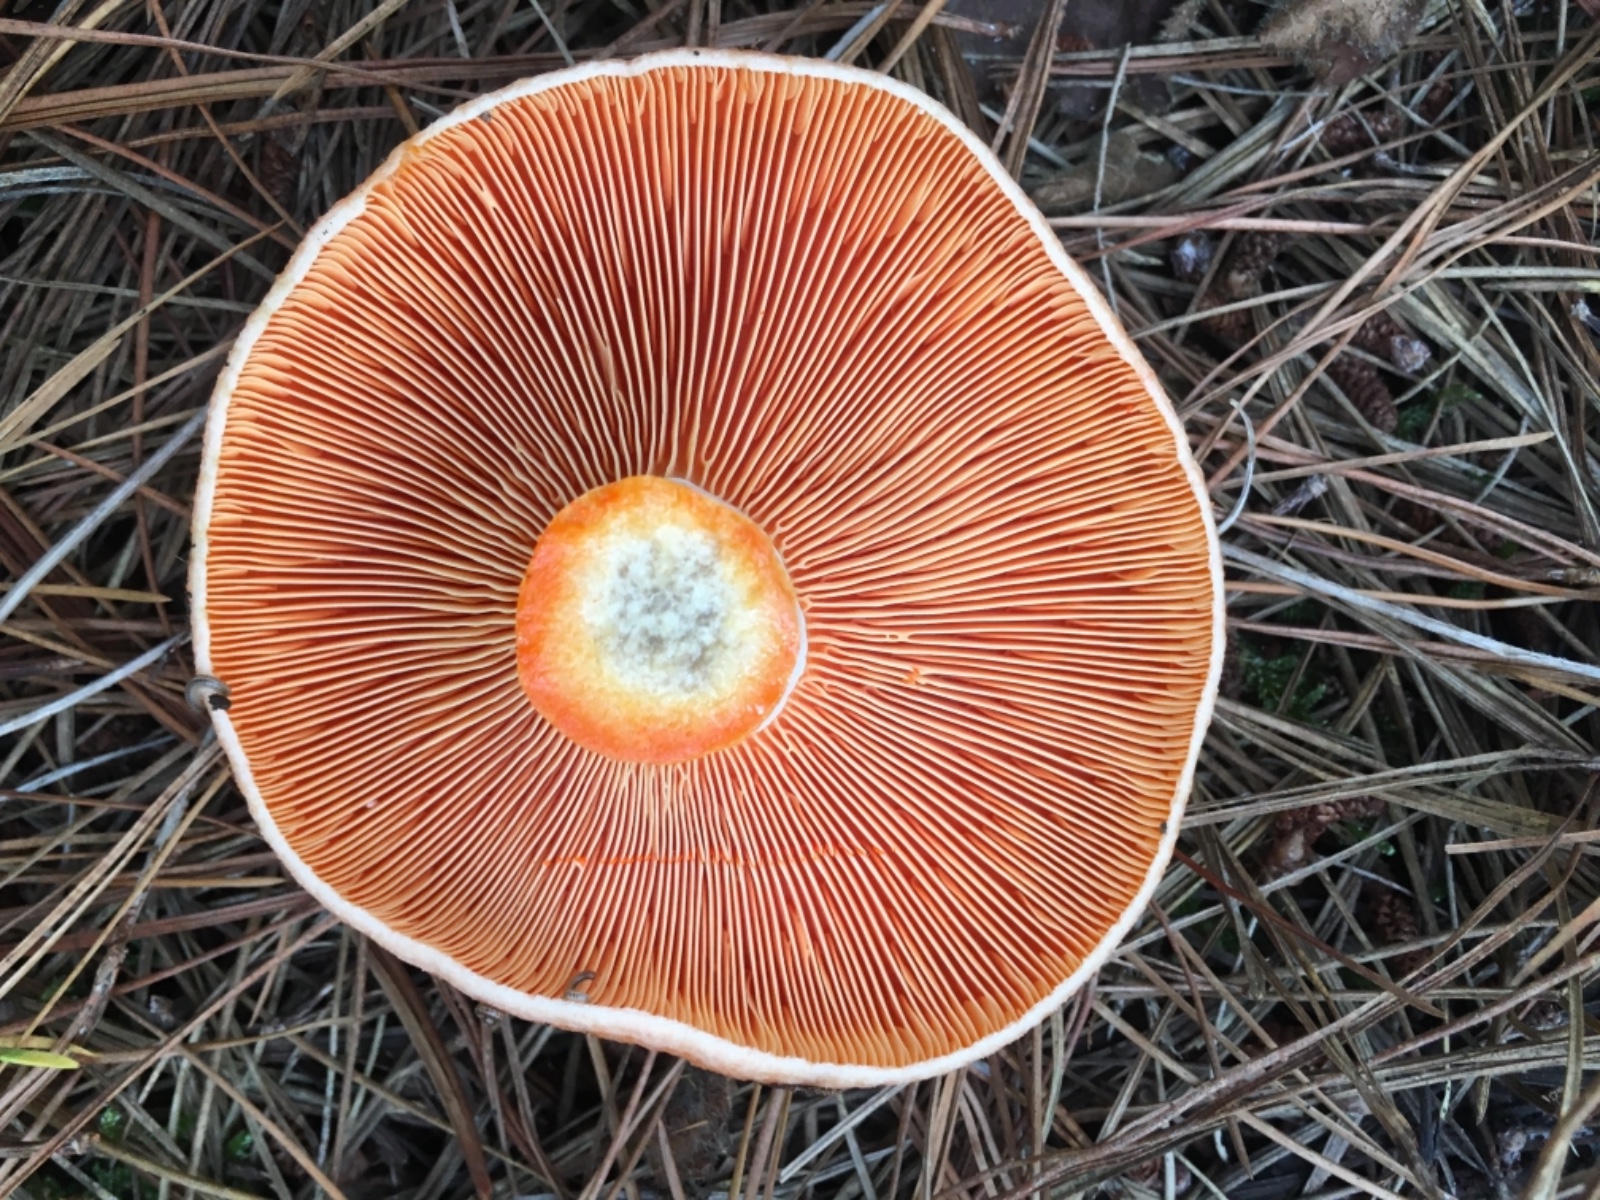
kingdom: Fungi
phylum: Basidiomycota
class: Agaricomycetes
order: Russulales
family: Russulaceae
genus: Lactarius
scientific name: Lactarius deliciosus
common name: velsmagende mælkehat
